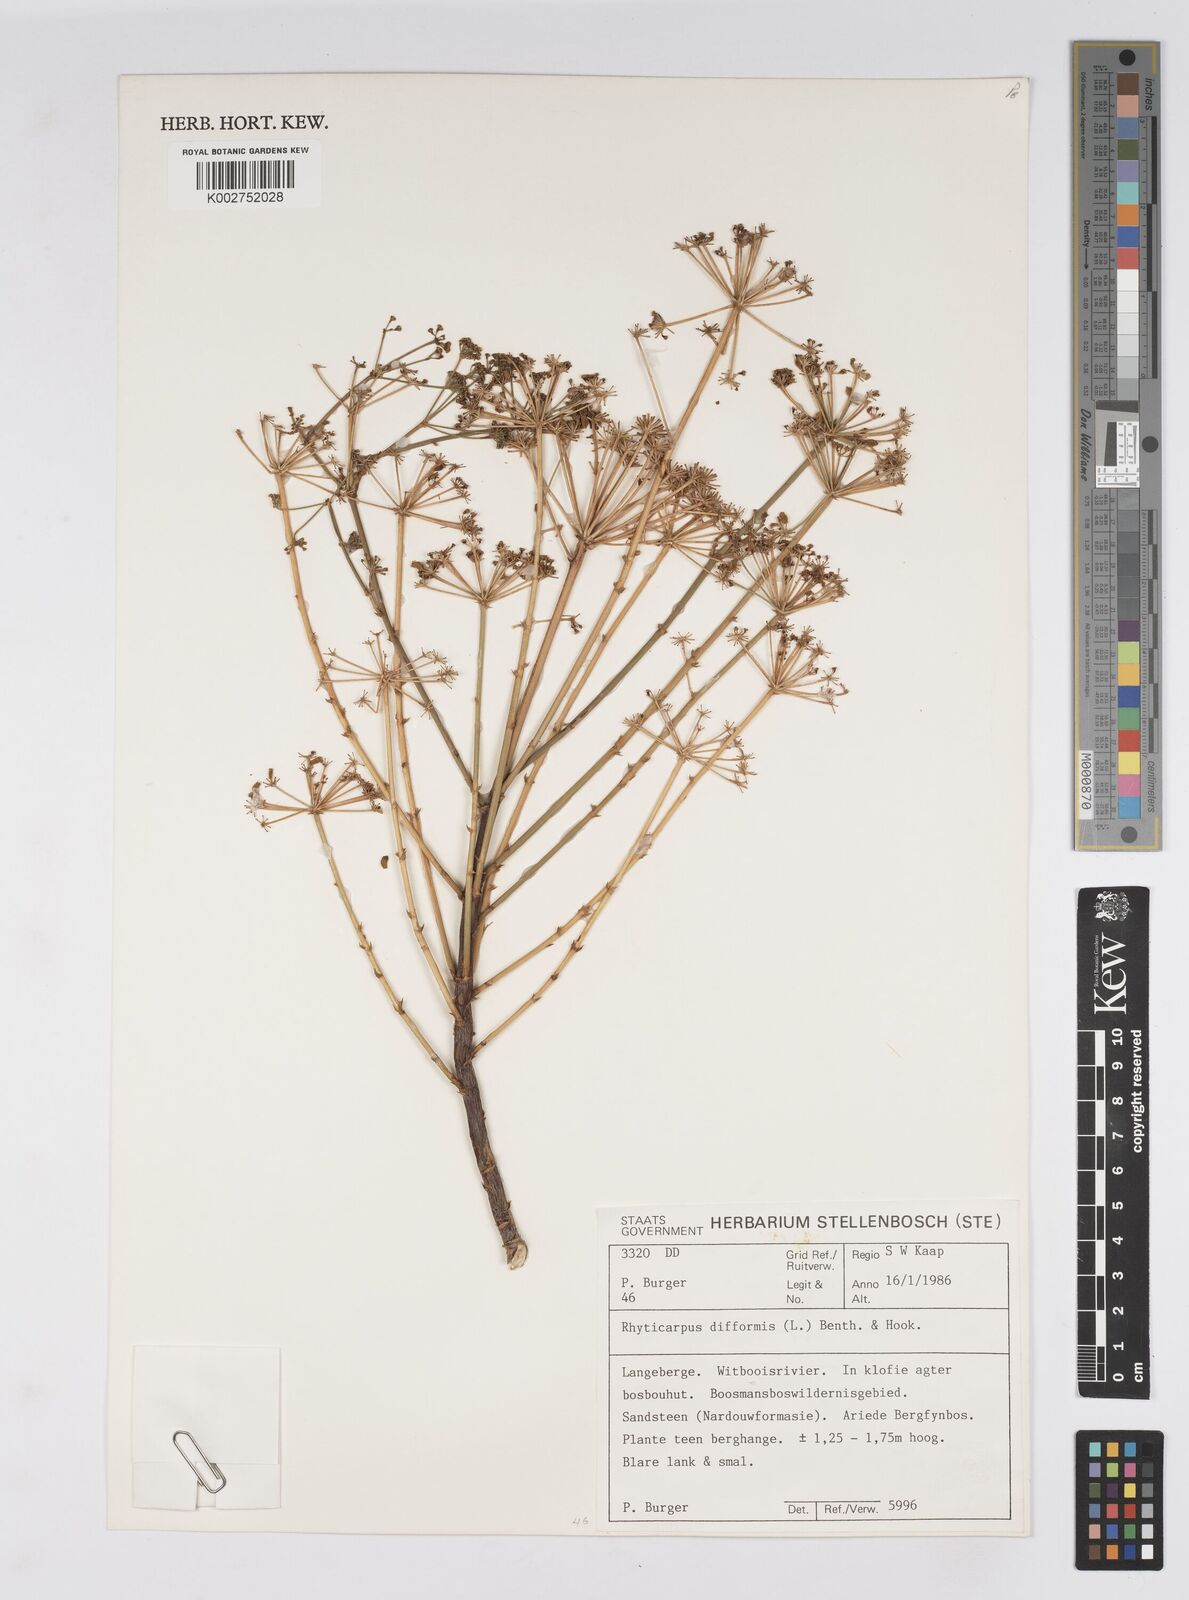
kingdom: Plantae
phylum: Tracheophyta
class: Magnoliopsida
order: Apiales
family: Apiaceae
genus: Anginon
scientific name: Anginon difforme
